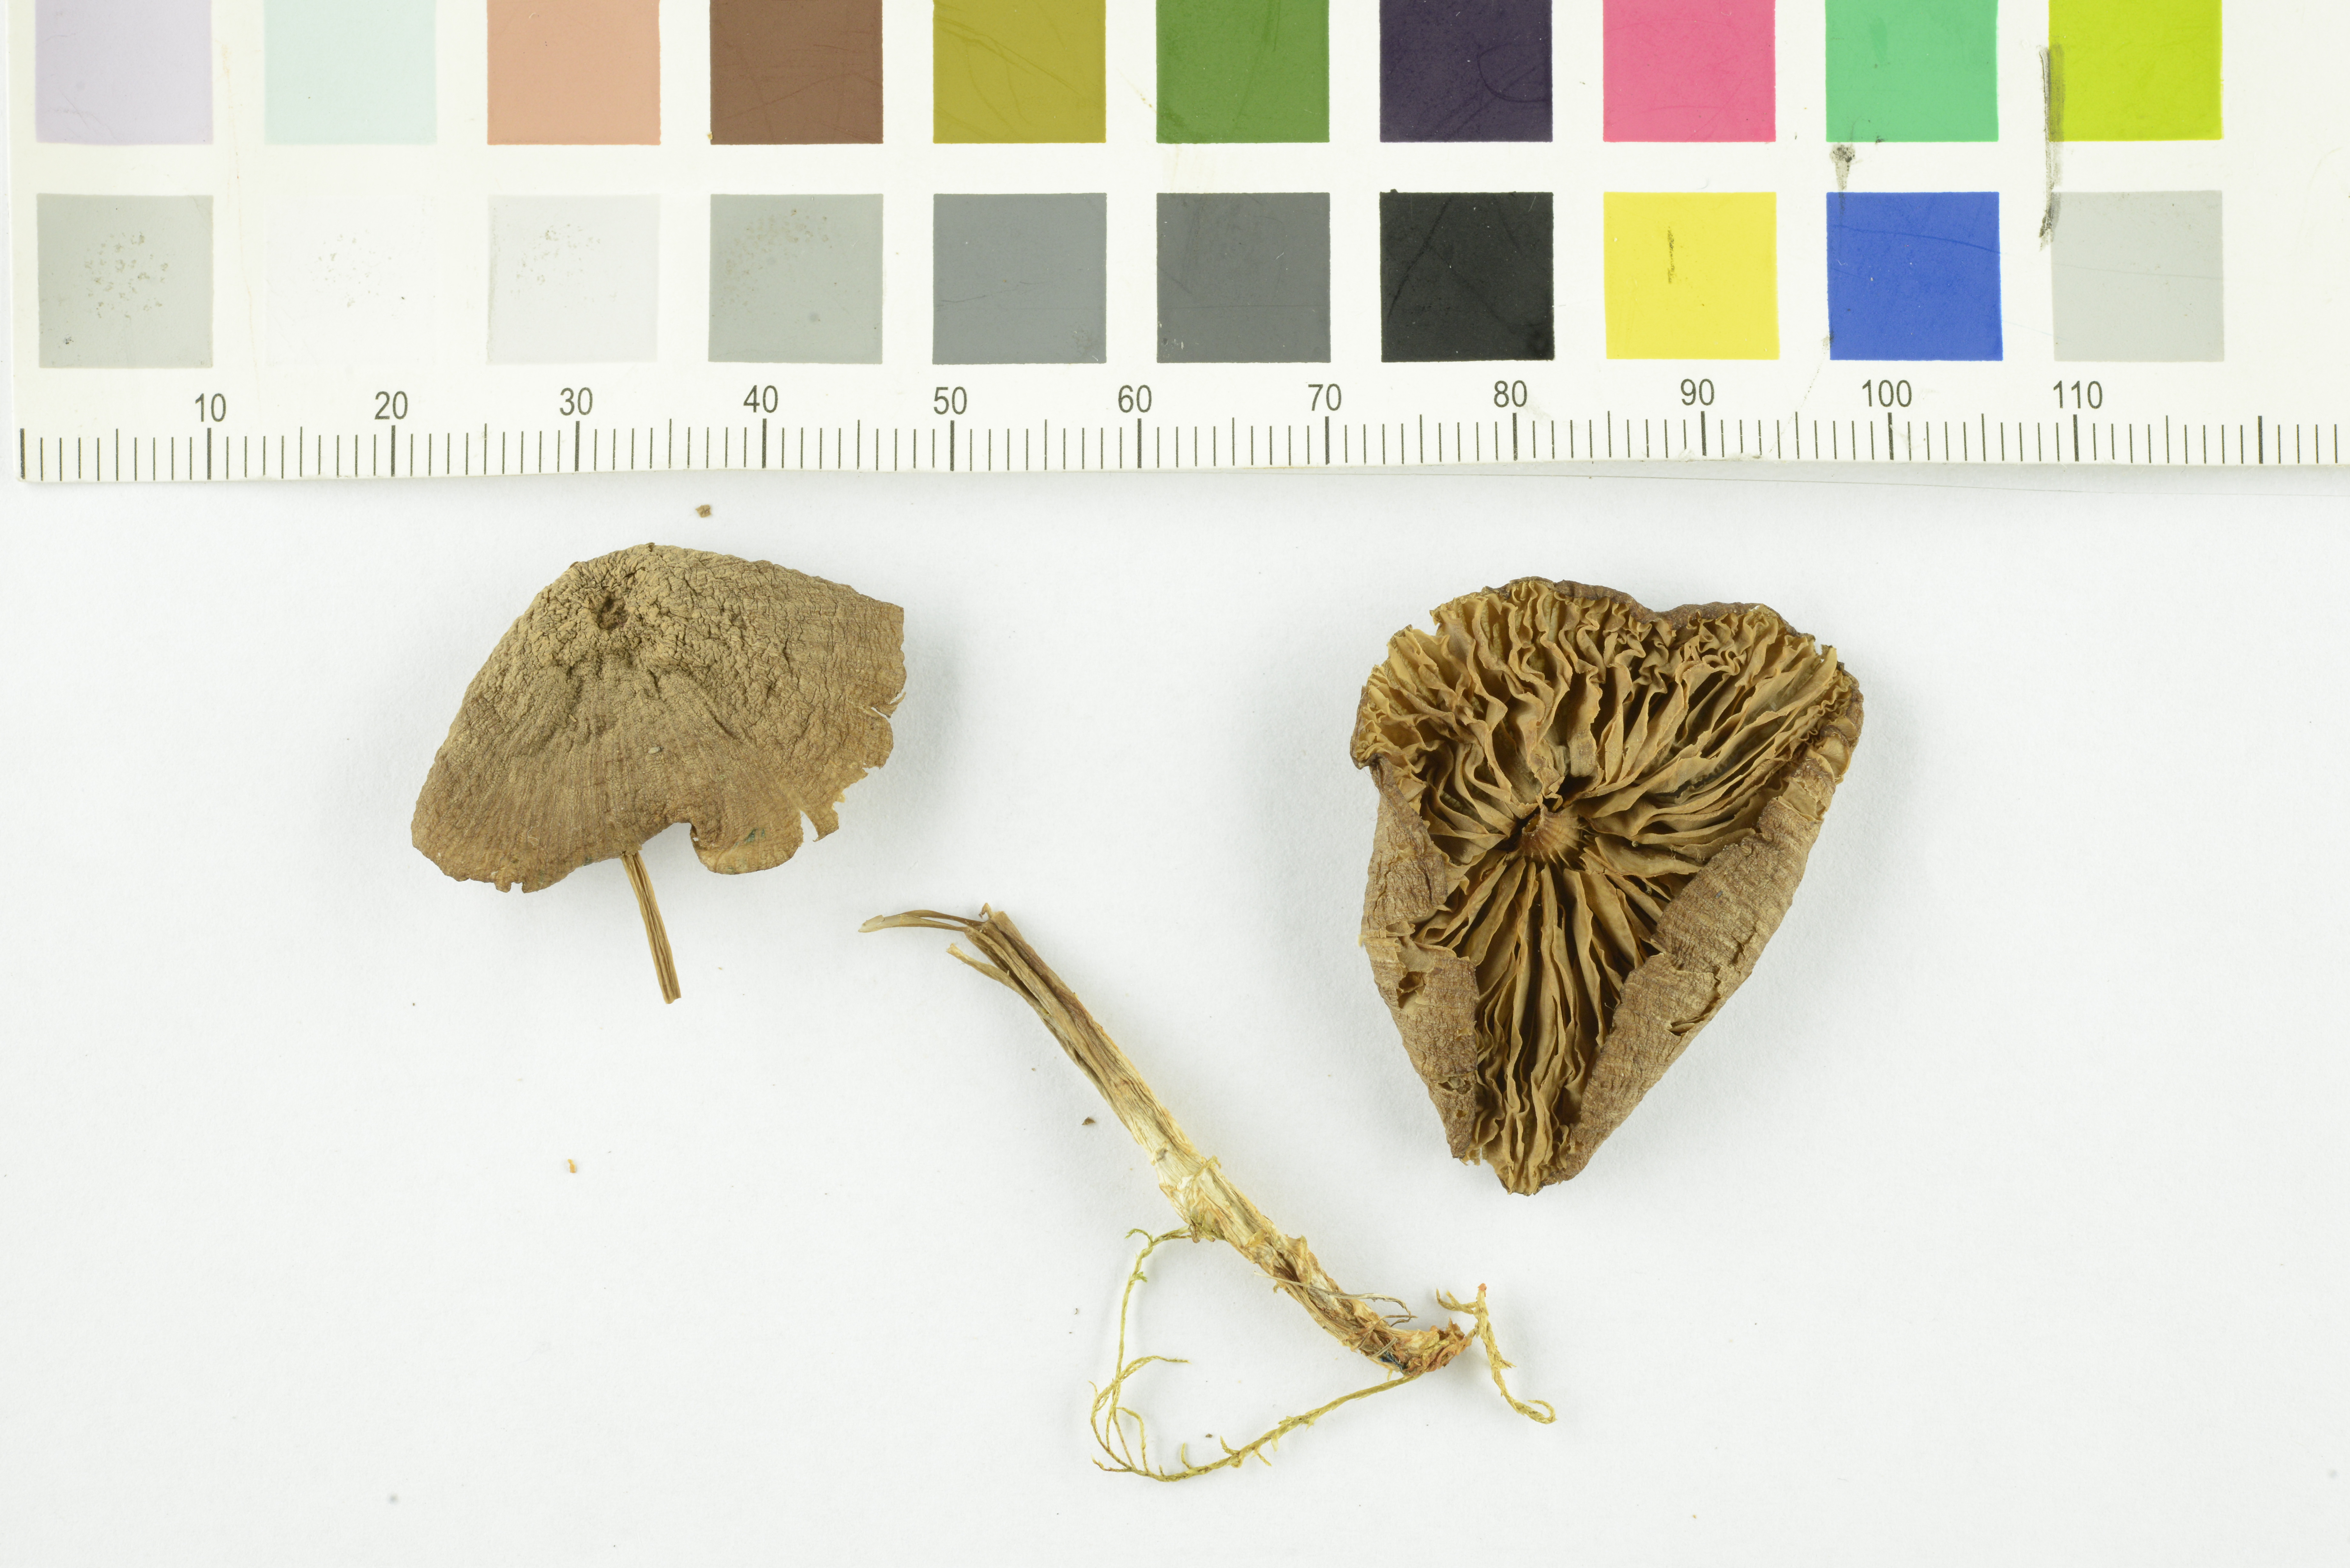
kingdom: Fungi
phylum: Basidiomycota
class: Agaricomycetes
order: Agaricales
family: Entolomataceae
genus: Entoloma
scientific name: Entoloma majusculum
